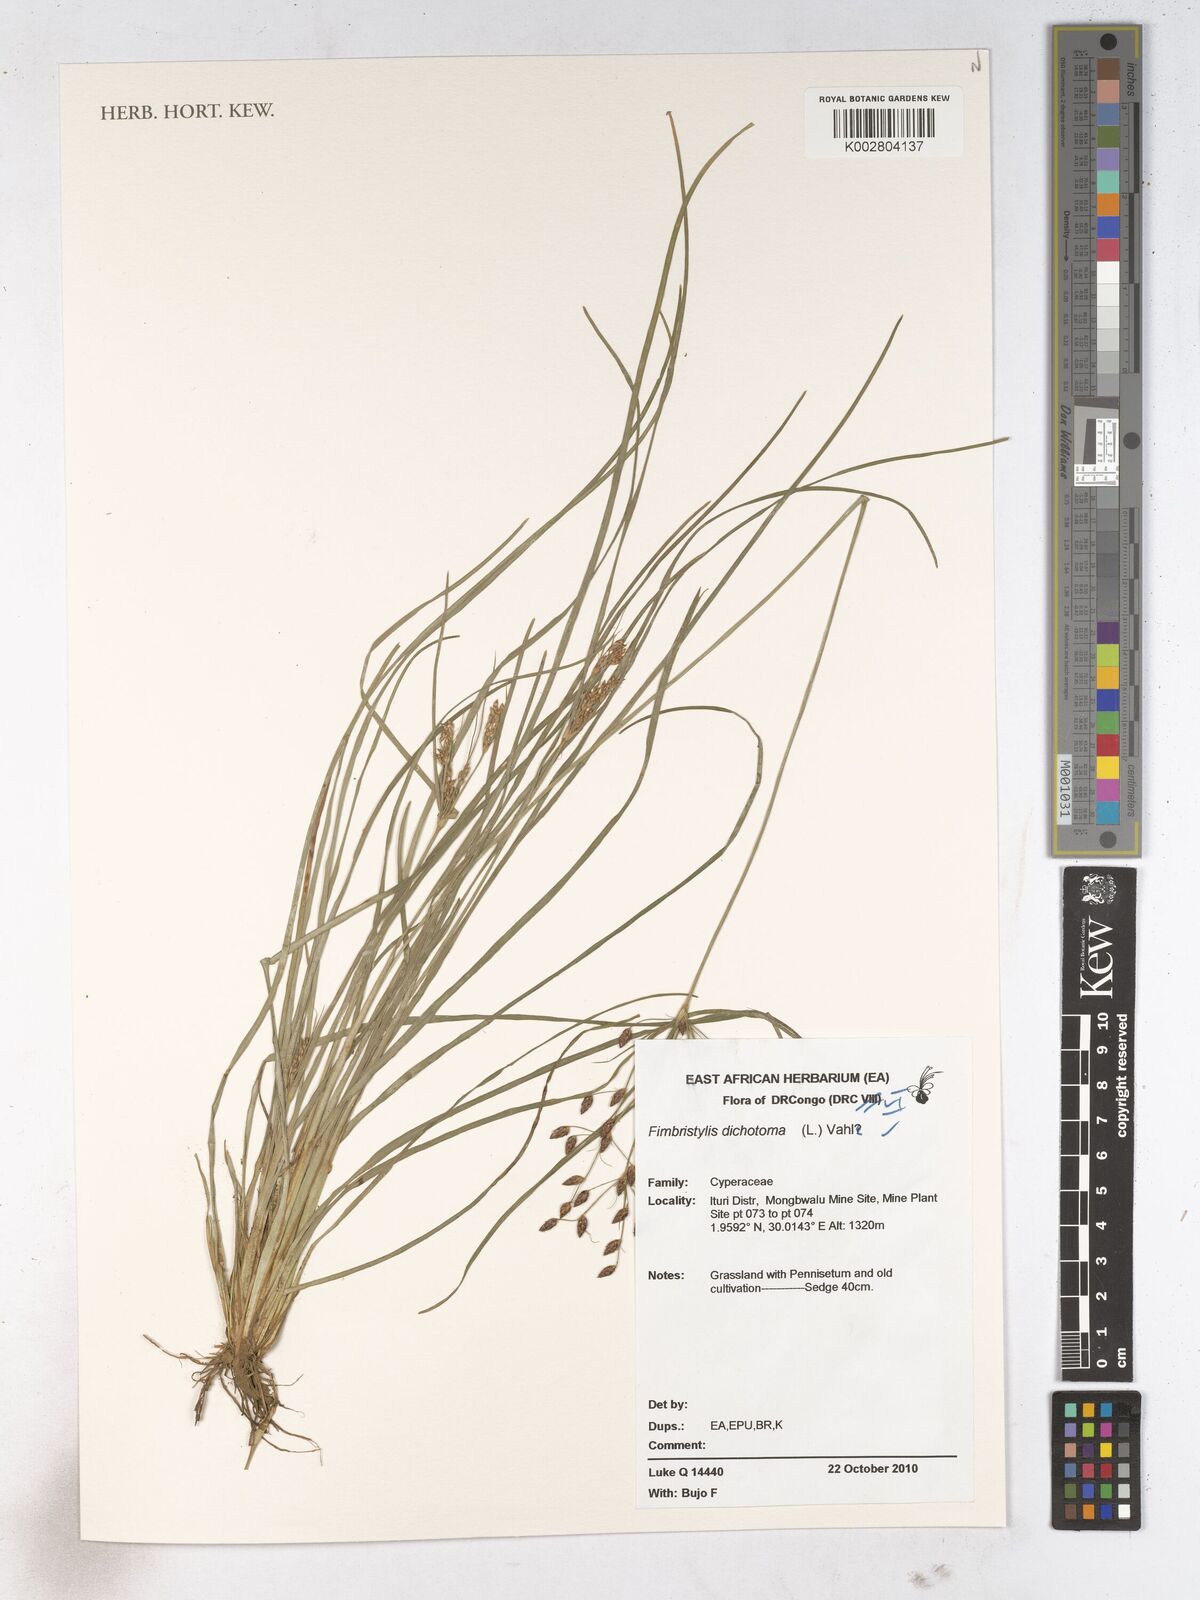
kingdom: Plantae
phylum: Tracheophyta
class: Liliopsida
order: Poales
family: Cyperaceae
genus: Fimbristylis
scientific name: Fimbristylis dichotoma
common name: Forked fimbry
